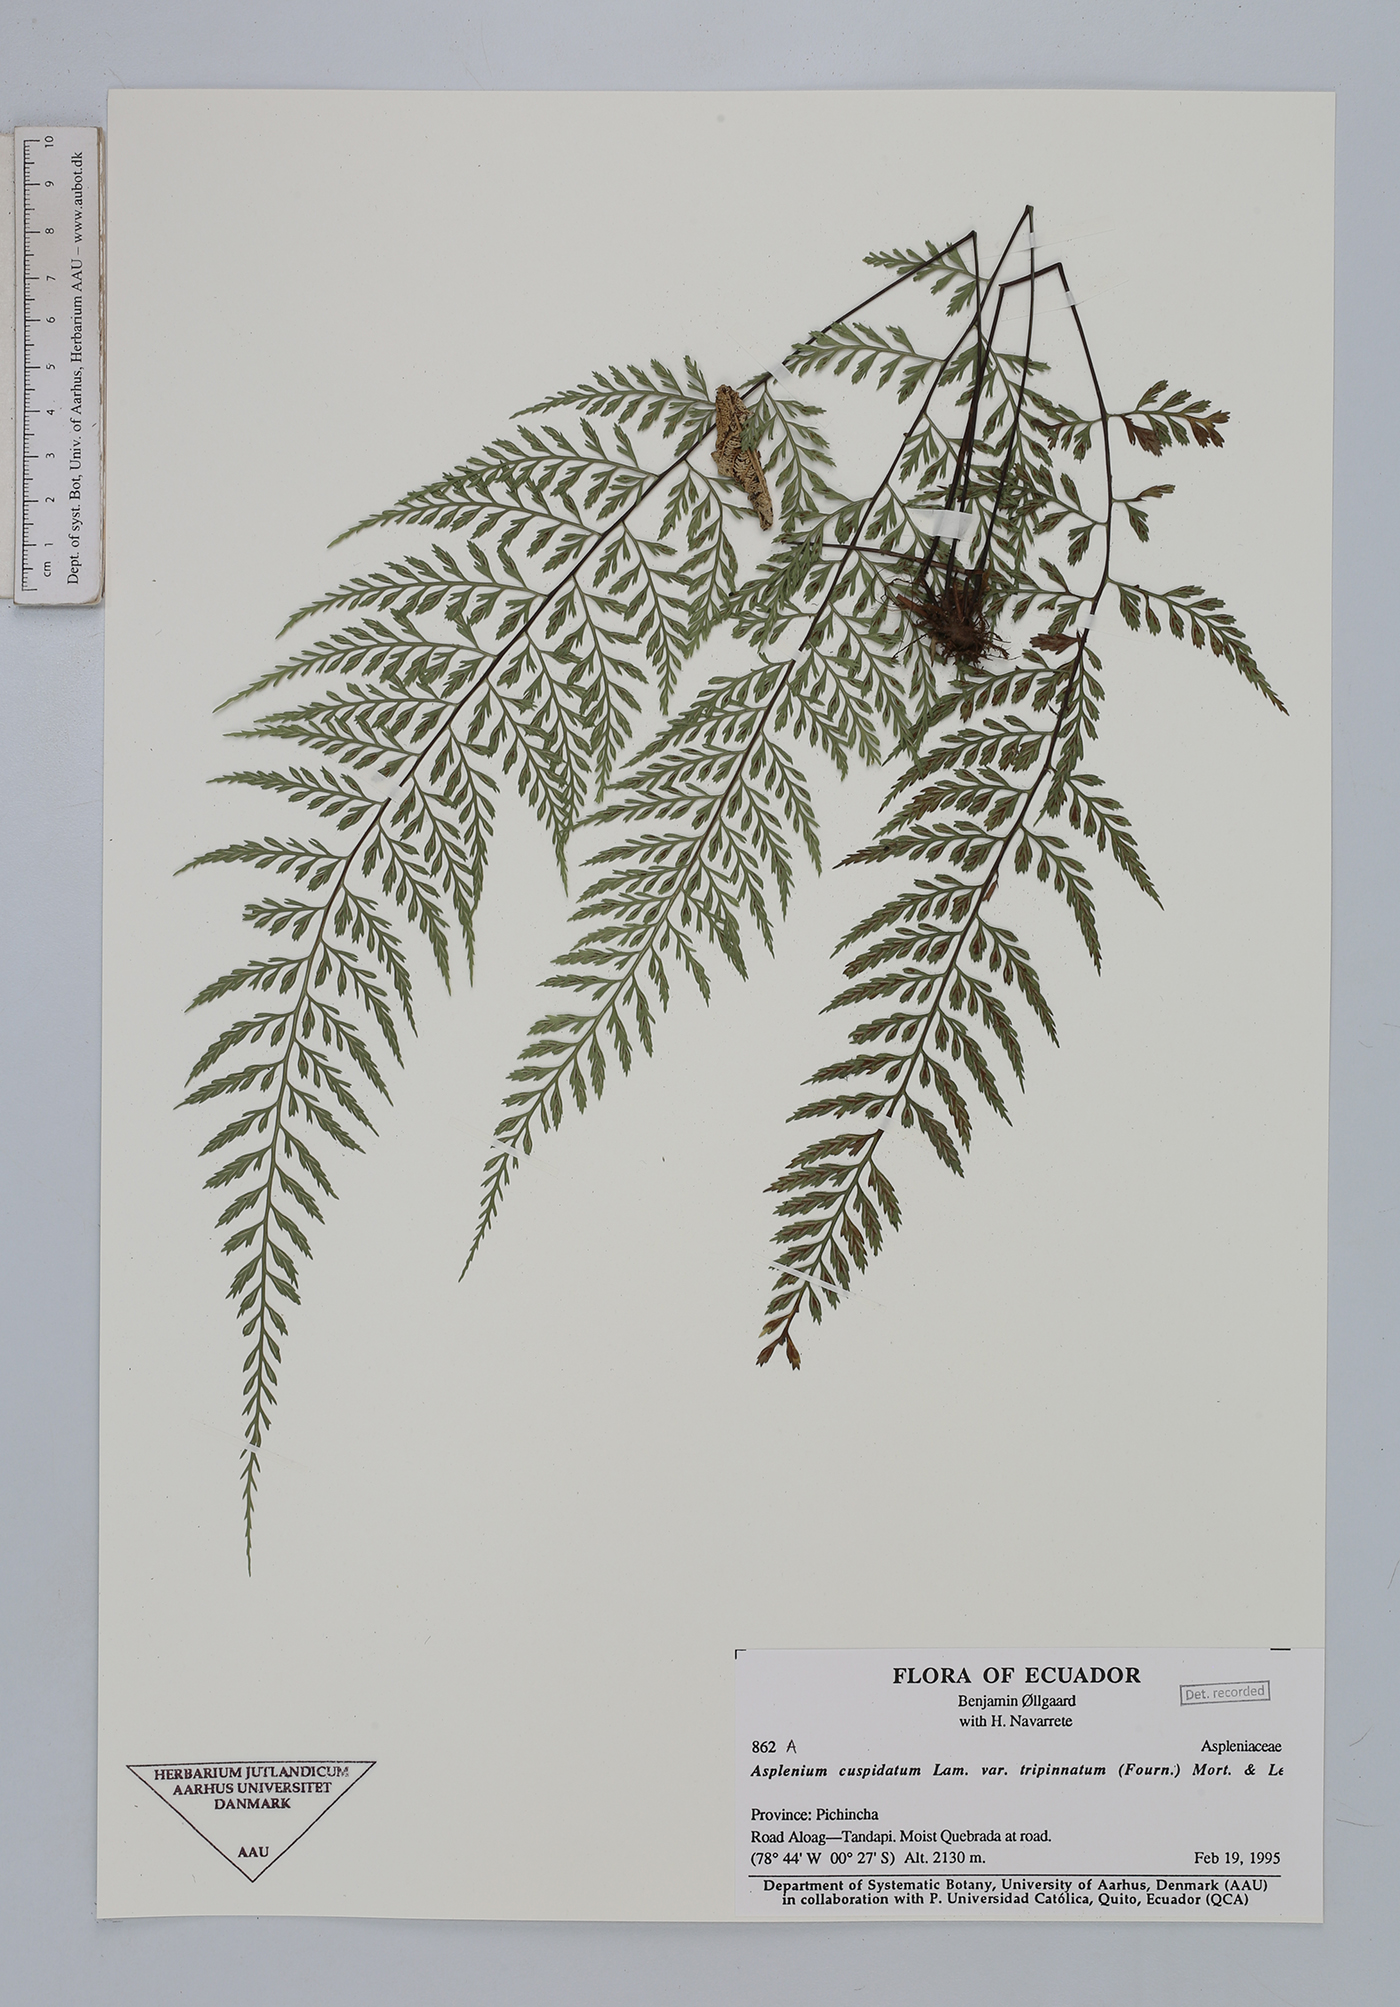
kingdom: Plantae
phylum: Tracheophyta
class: Polypodiopsida
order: Polypodiales
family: Aspleniaceae
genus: Asplenium
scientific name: Asplenium fragrans
